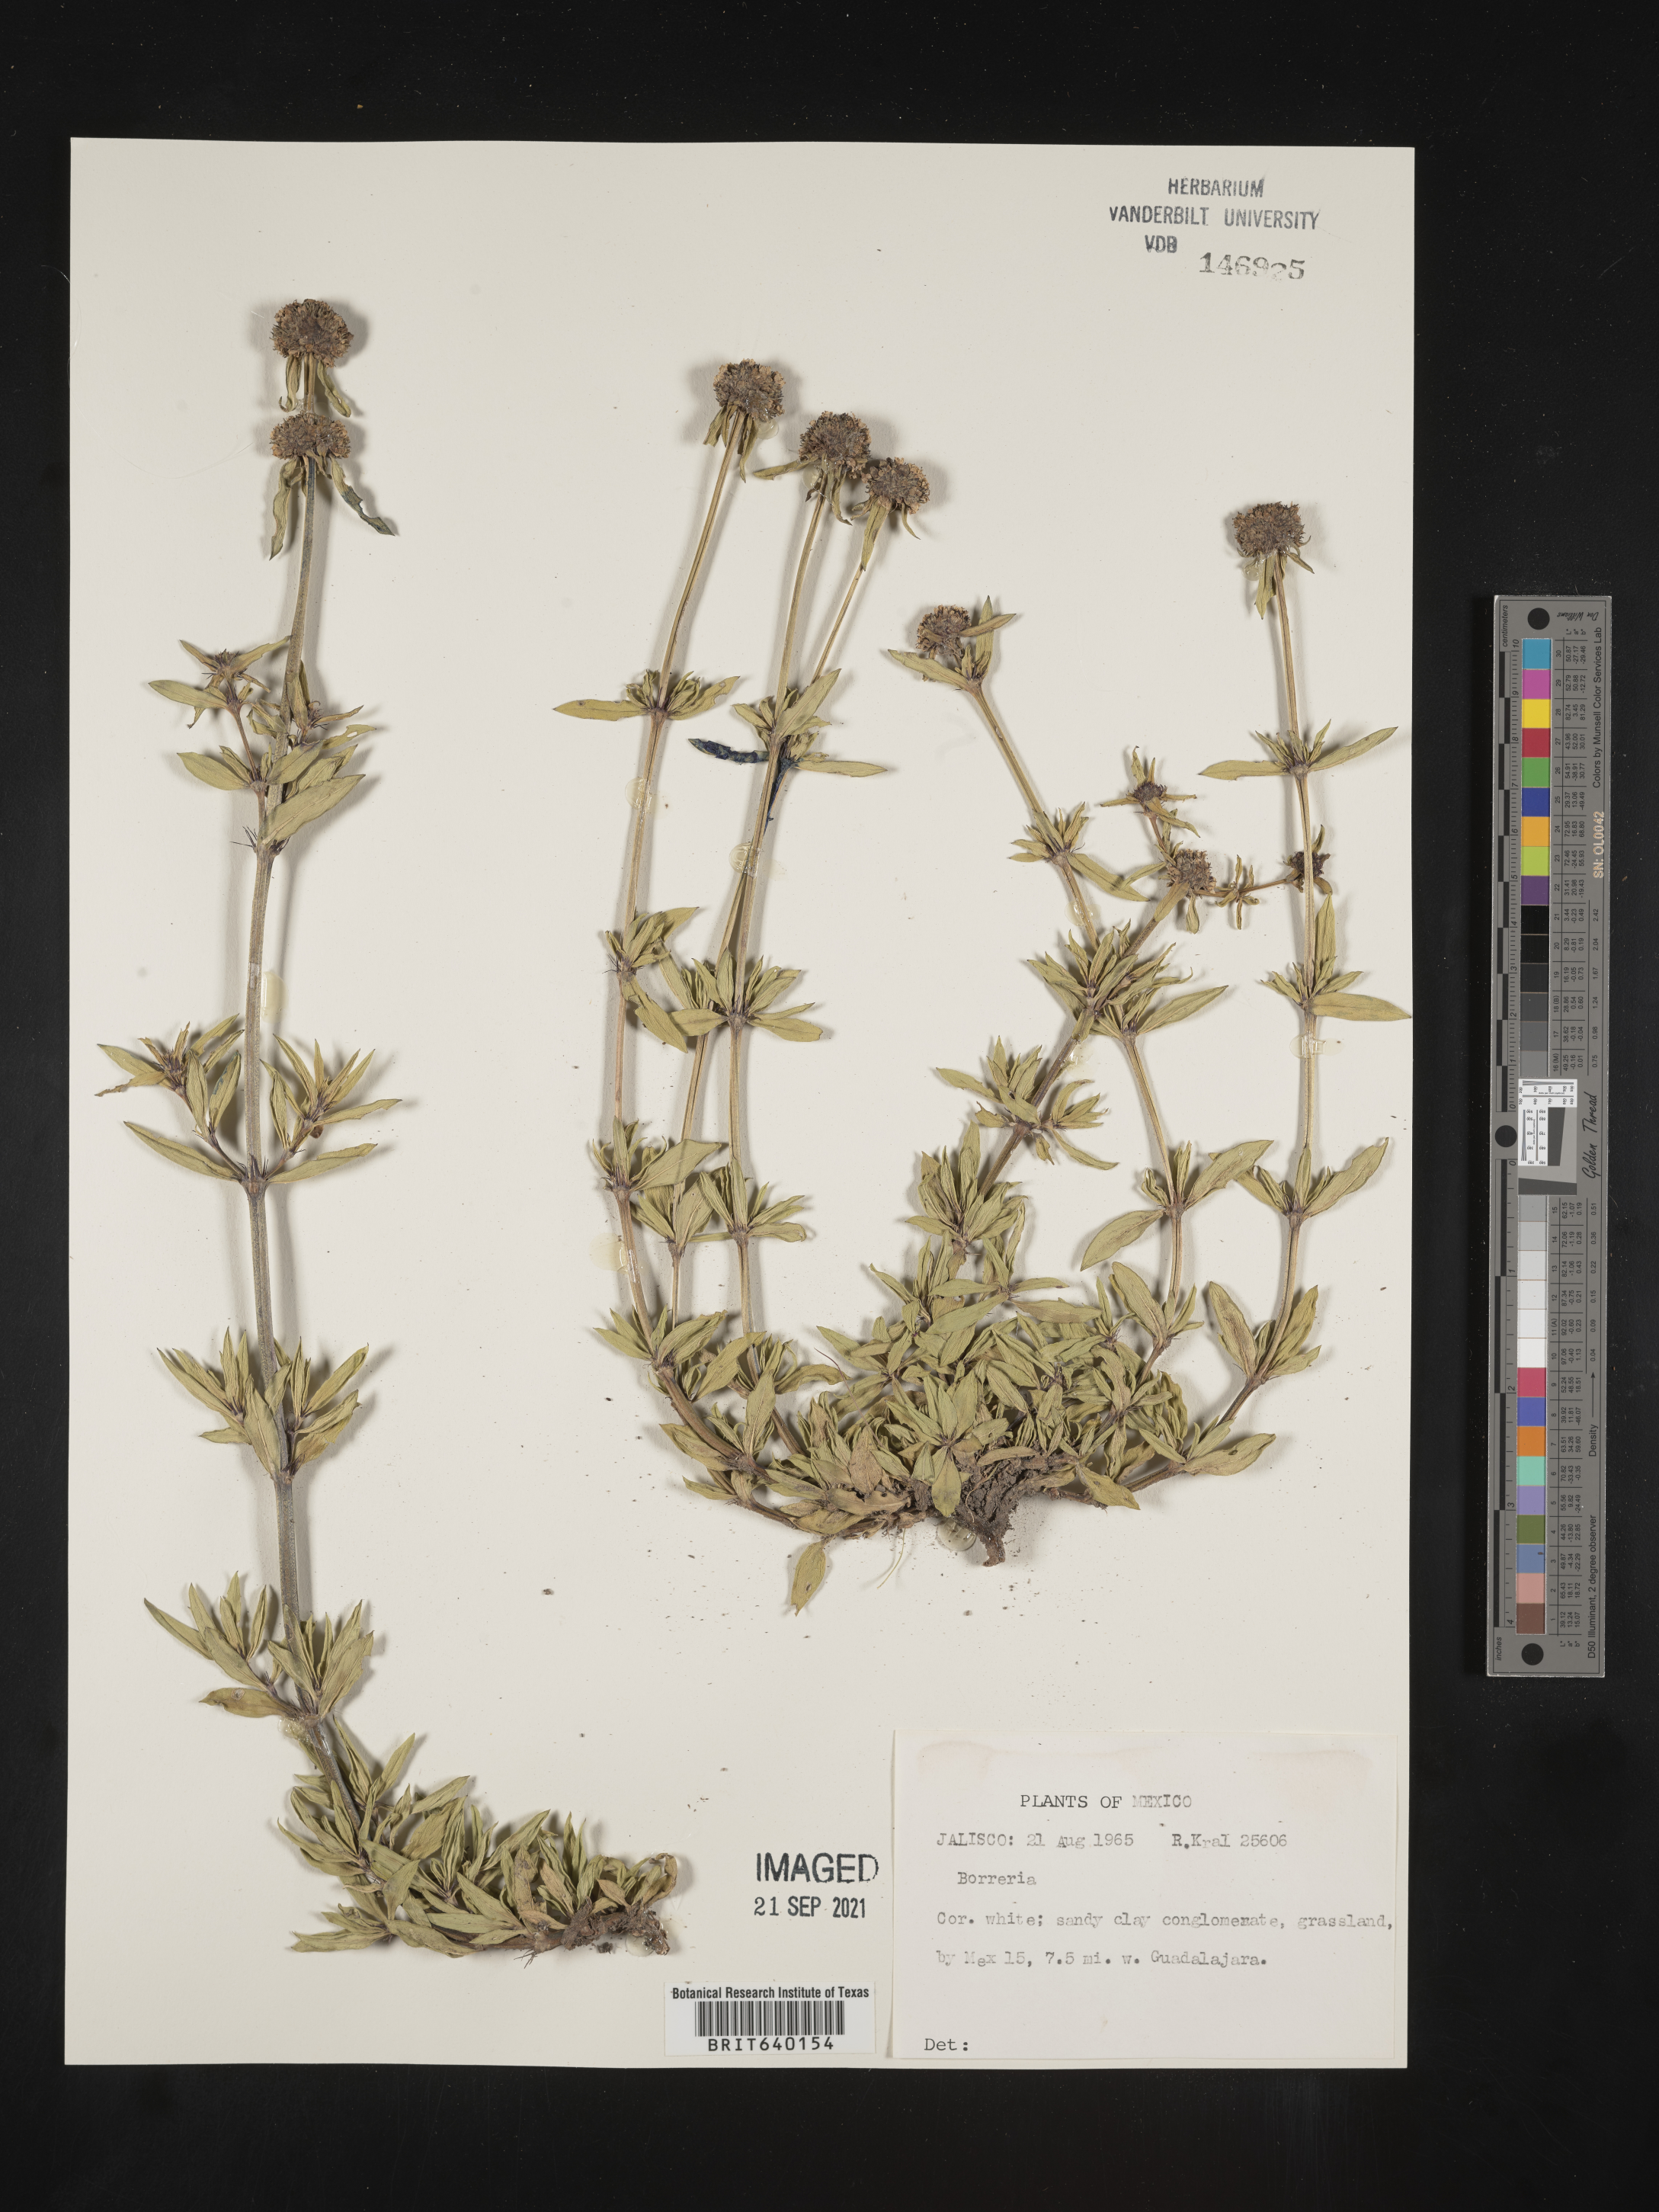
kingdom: Plantae
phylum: Tracheophyta
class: Magnoliopsida
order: Gentianales
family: Rubiaceae
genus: Spermacoce
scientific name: Spermacoce
